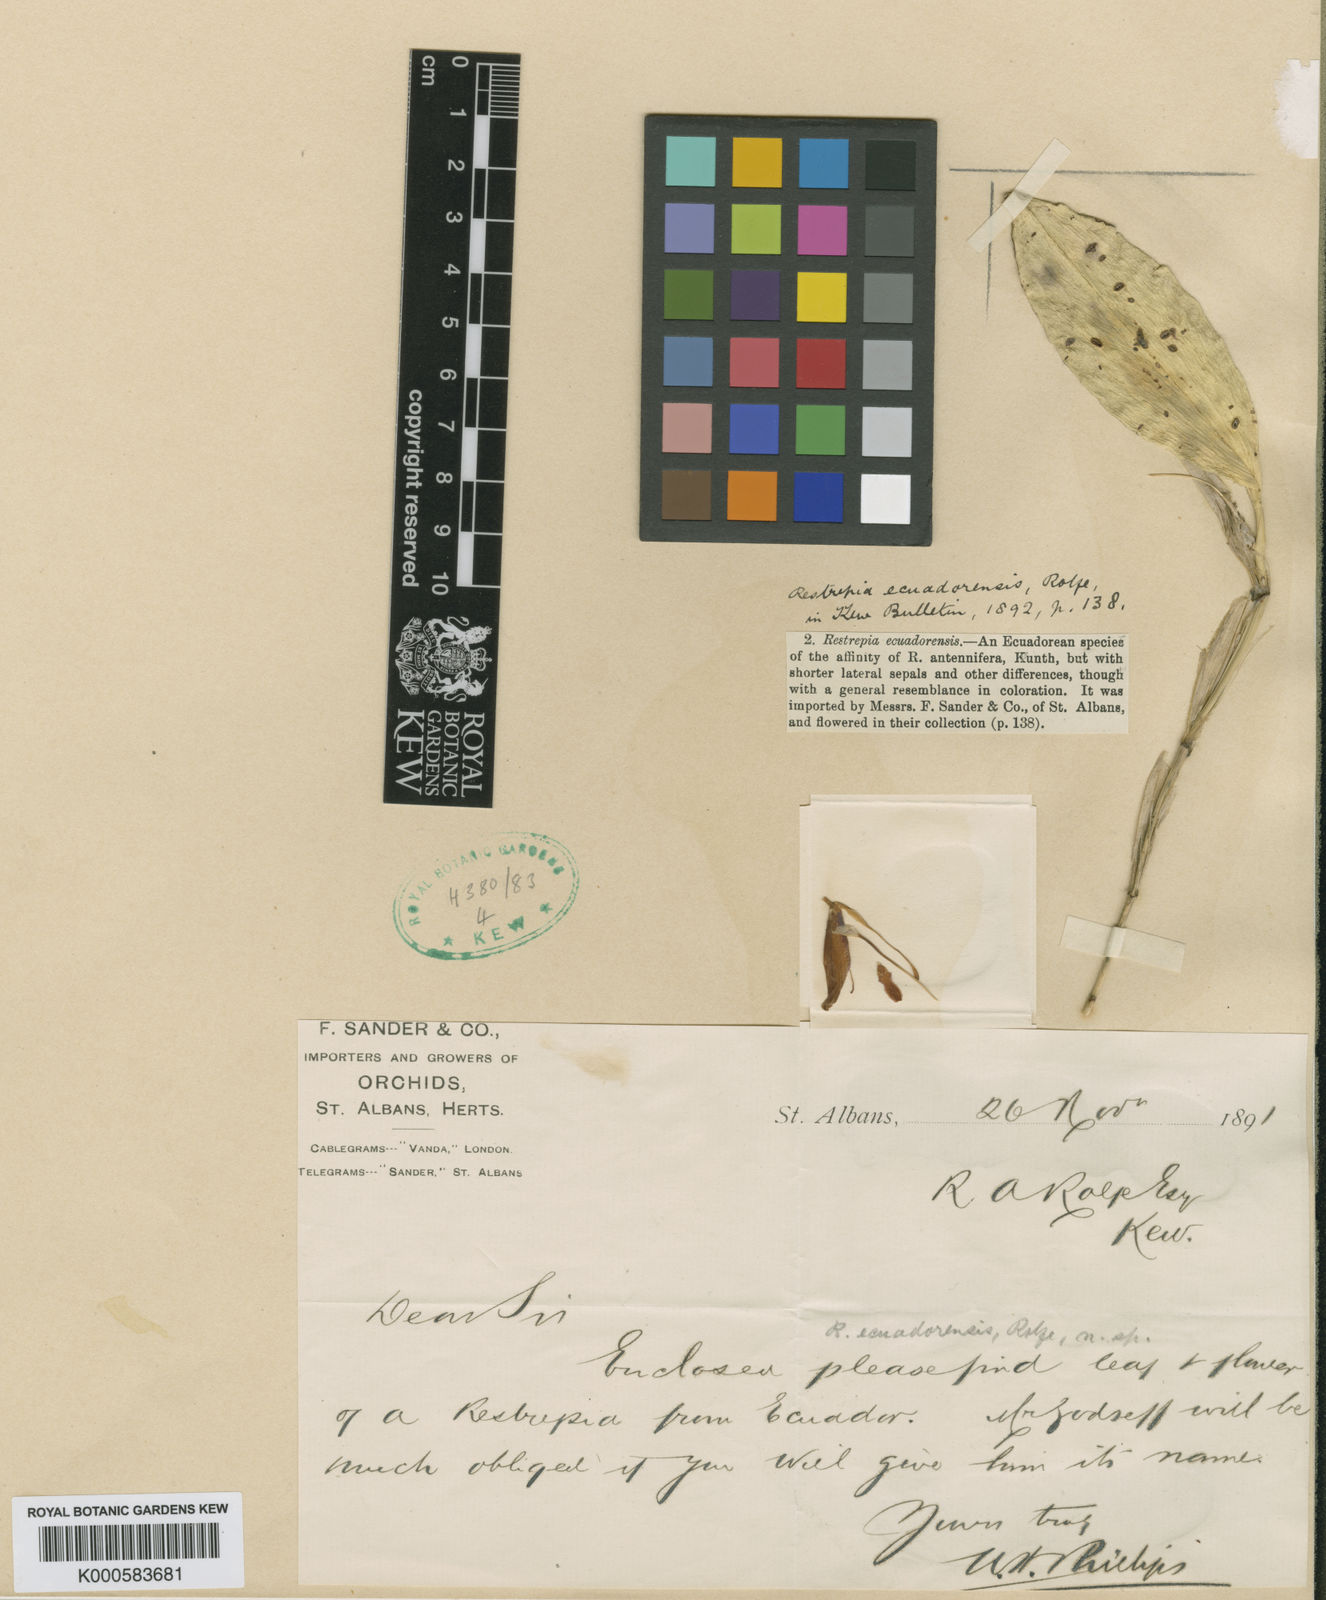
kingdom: Plantae
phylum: Tracheophyta
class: Liliopsida
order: Asparagales
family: Orchidaceae
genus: Restrepia
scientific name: Restrepia echo
